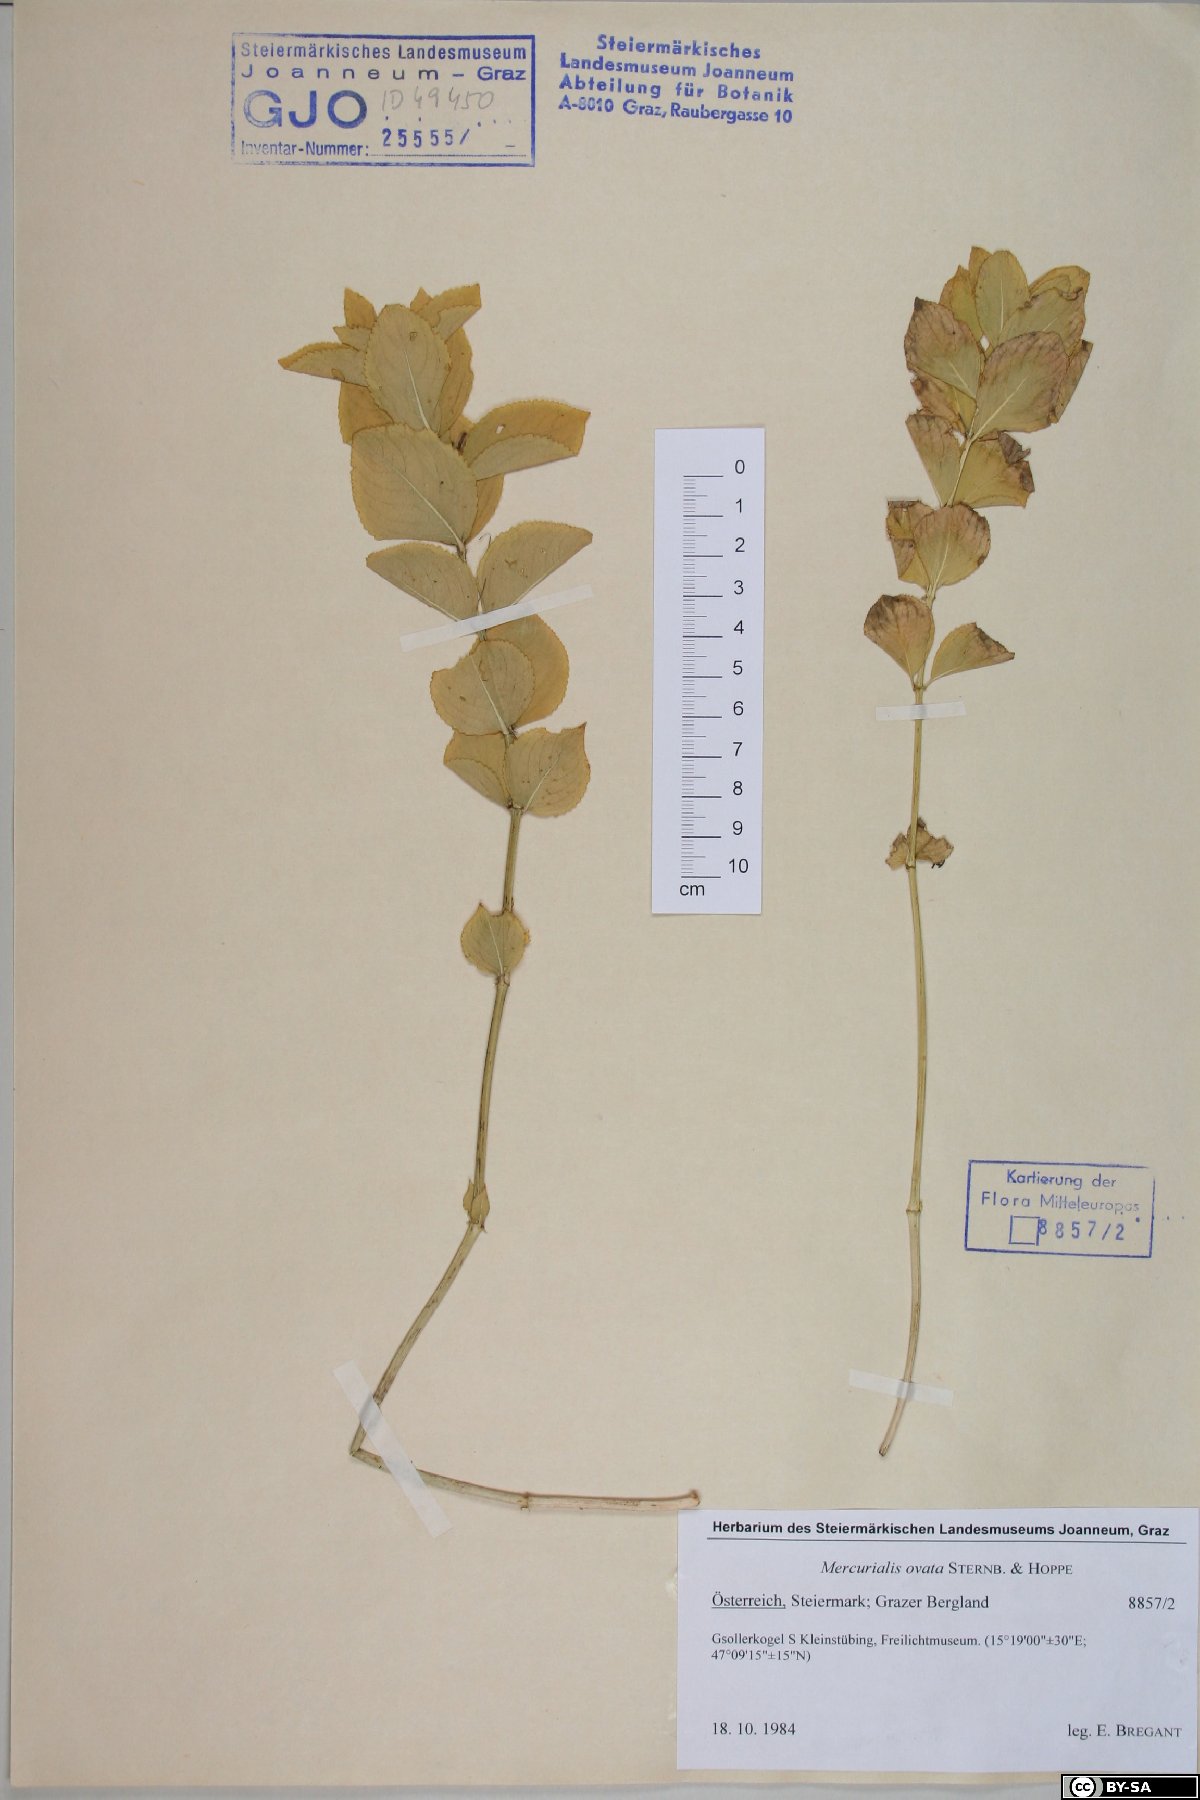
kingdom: Plantae
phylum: Tracheophyta
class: Magnoliopsida
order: Malpighiales
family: Euphorbiaceae
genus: Mercurialis
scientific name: Mercurialis ovata
